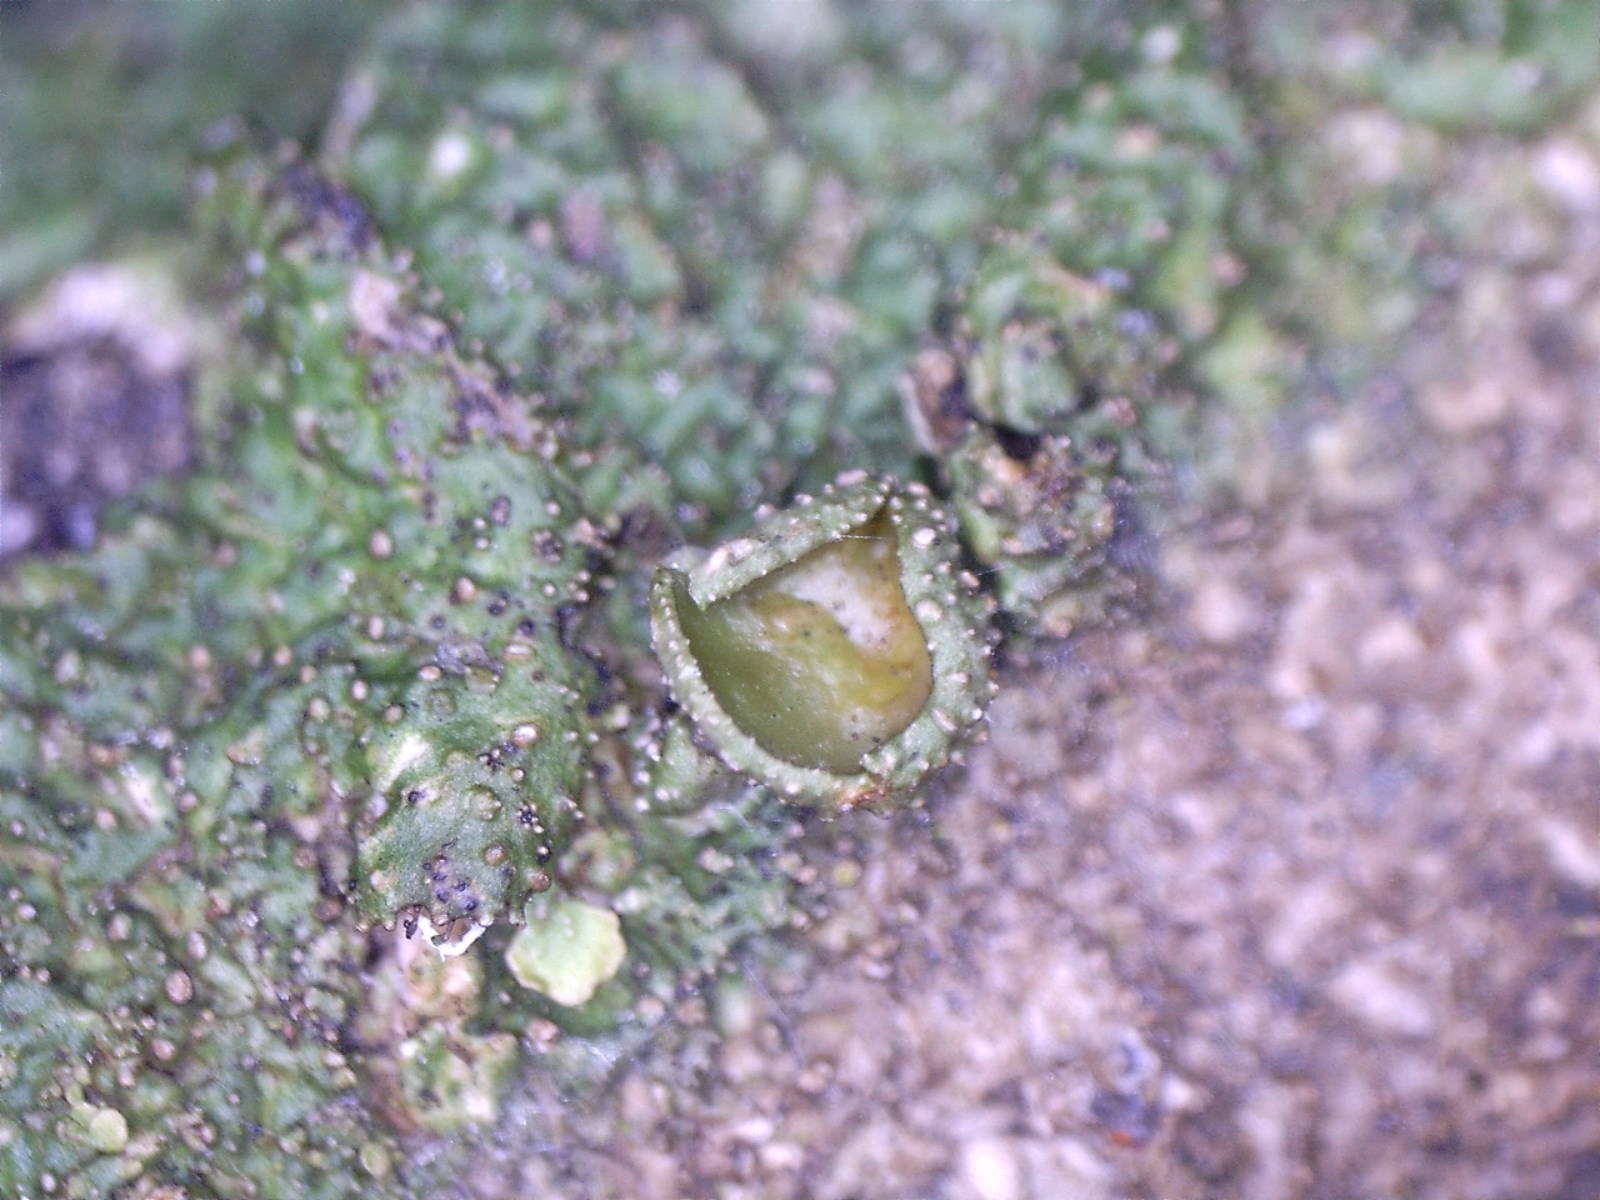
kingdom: Fungi
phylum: Ascomycota
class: Lecanoromycetes
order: Lecanorales
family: Parmeliaceae
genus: Melanohalea
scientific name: Melanohalea exasperata
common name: vortet skållav
